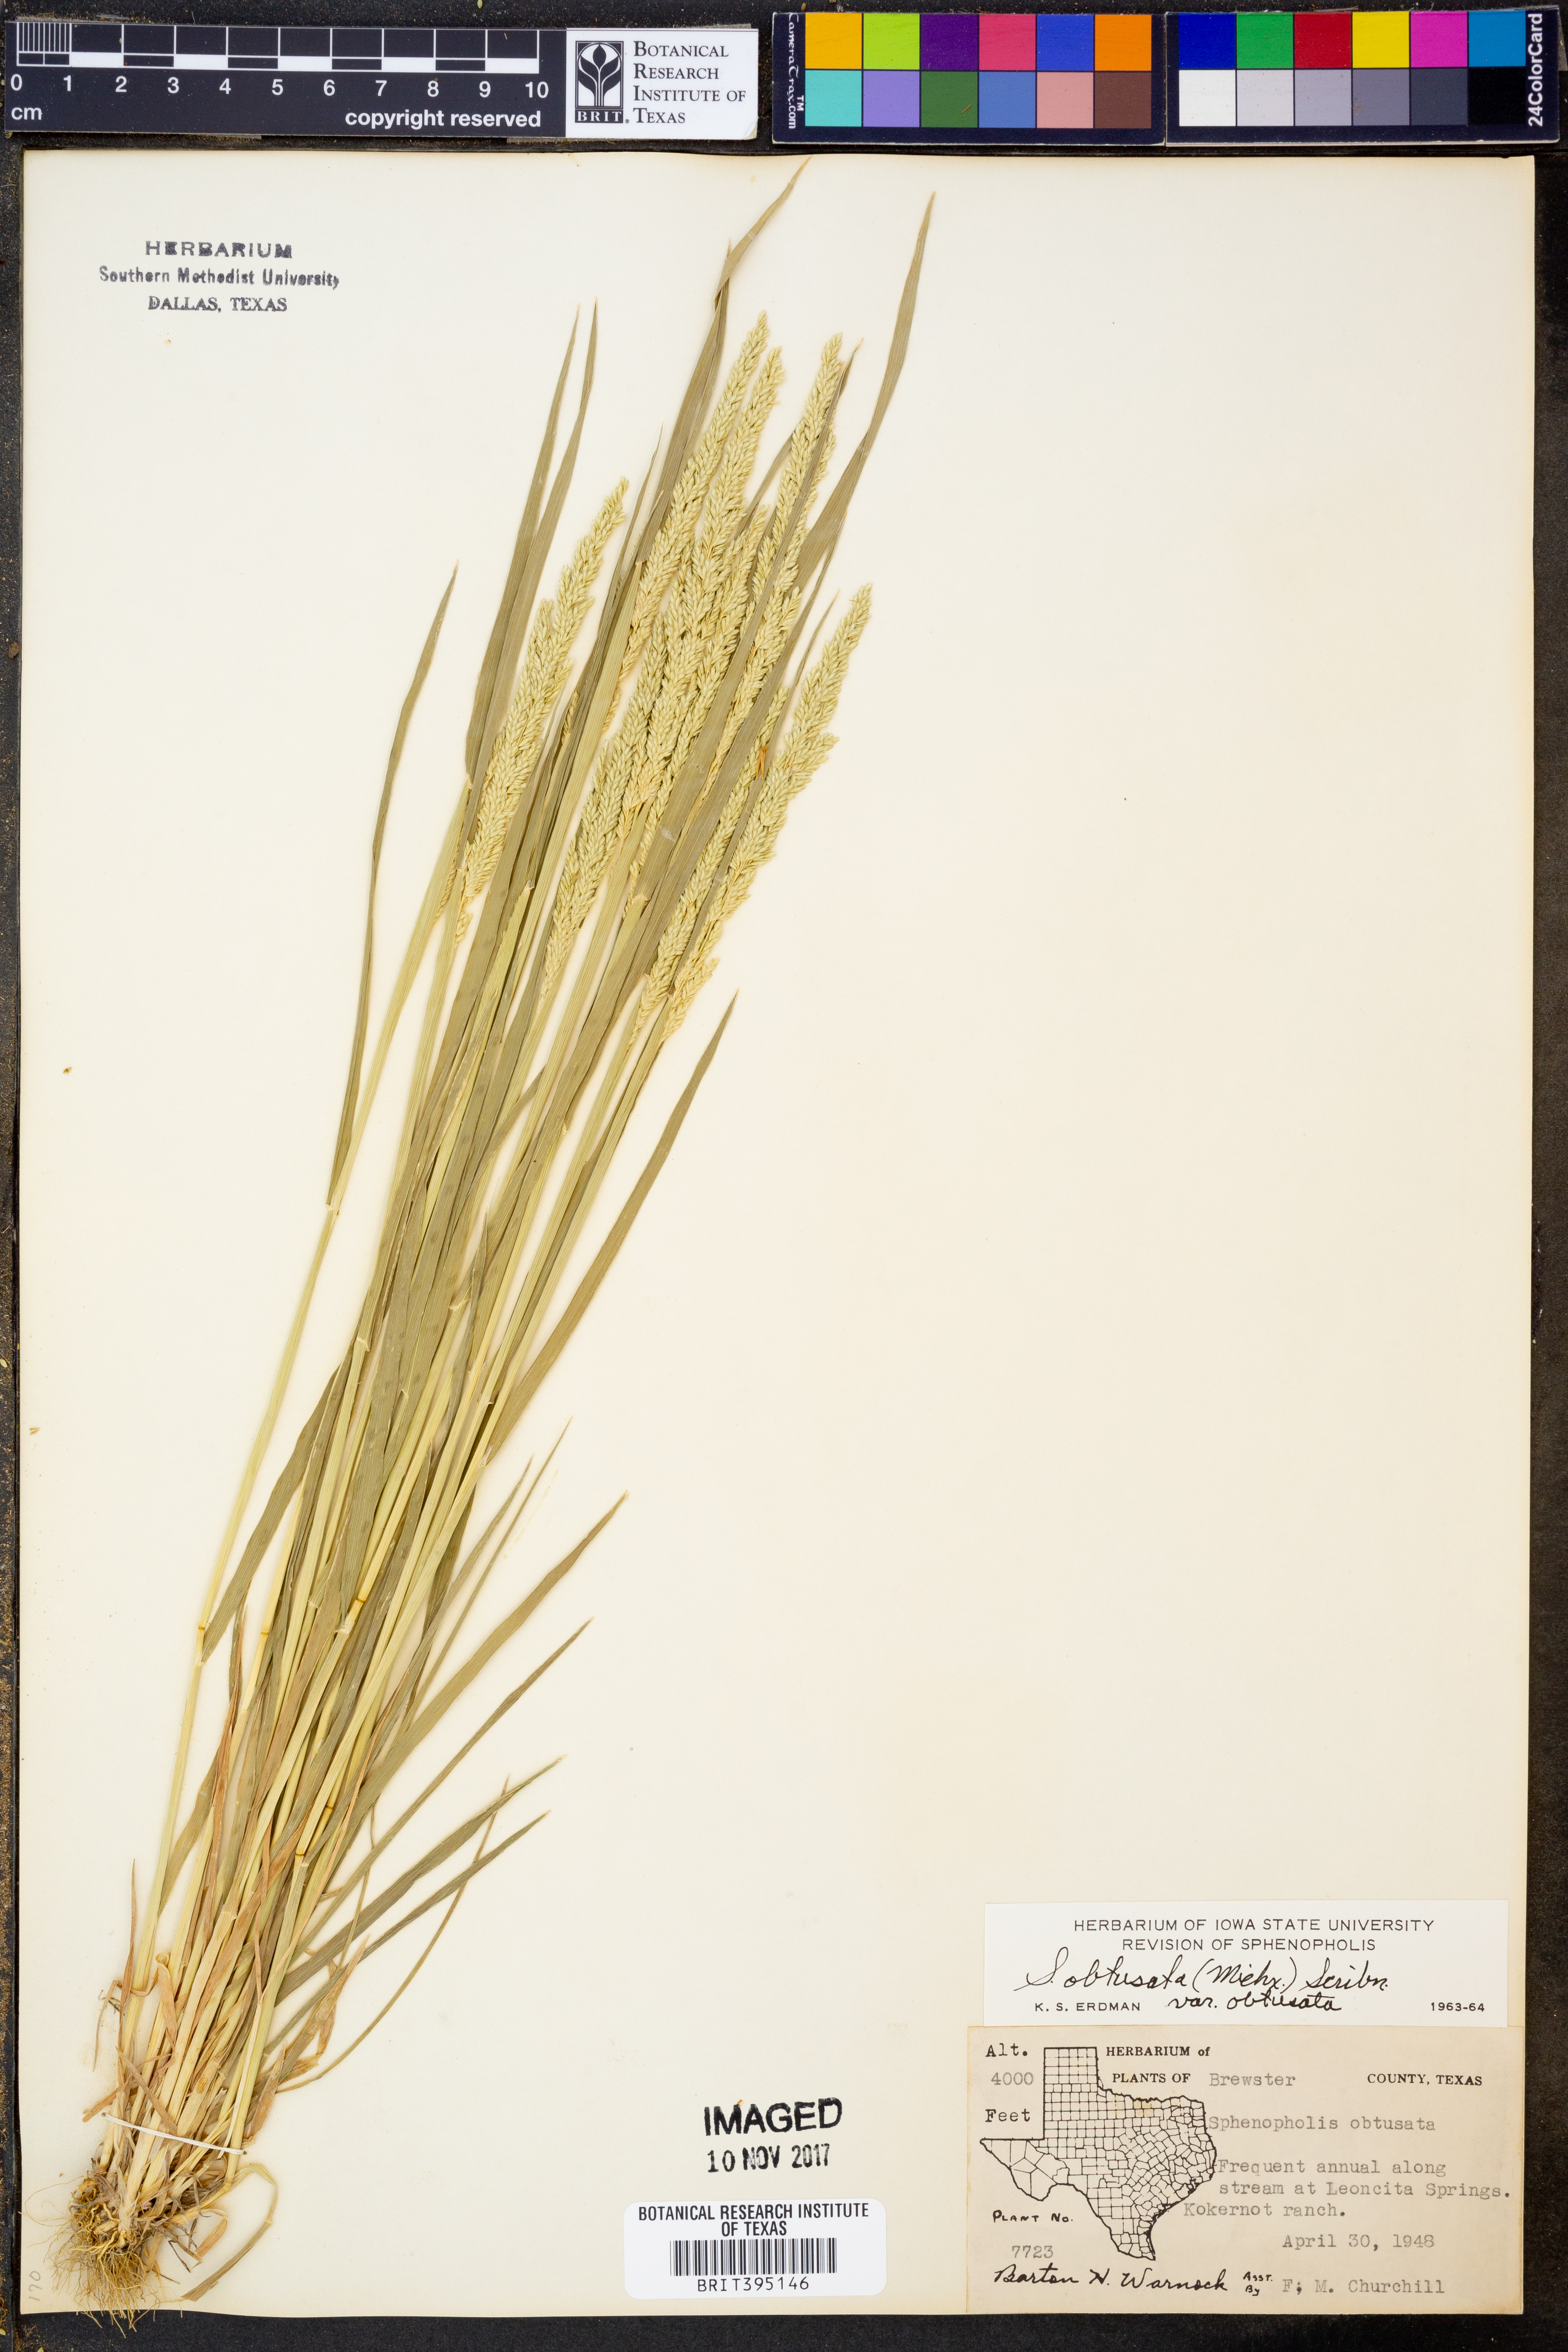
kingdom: Plantae
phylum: Tracheophyta
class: Liliopsida
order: Poales
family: Poaceae
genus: Sphenopholis
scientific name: Sphenopholis obtusata
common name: Prairie grass
